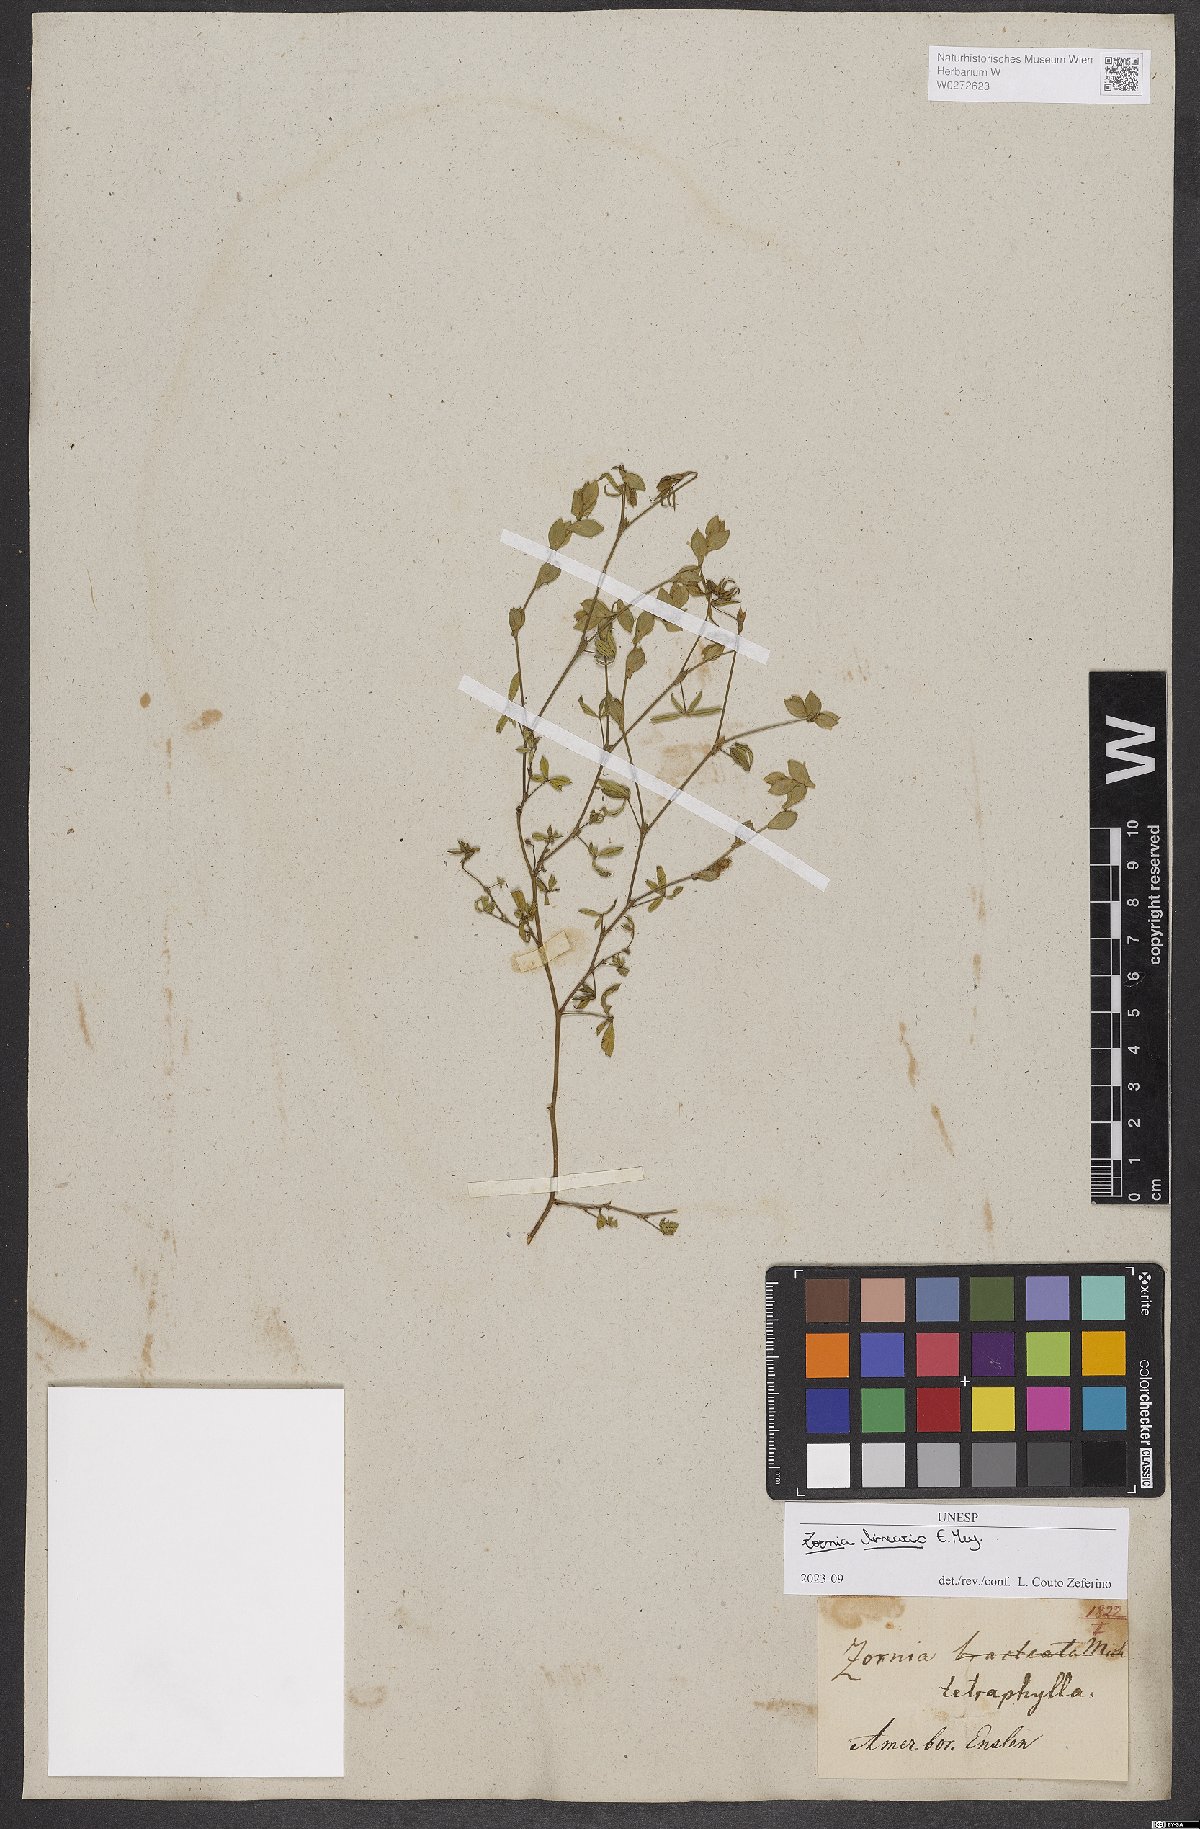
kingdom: Plantae
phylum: Tracheophyta
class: Magnoliopsida
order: Fabales
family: Fabaceae
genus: Zornia
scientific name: Zornia linearis
